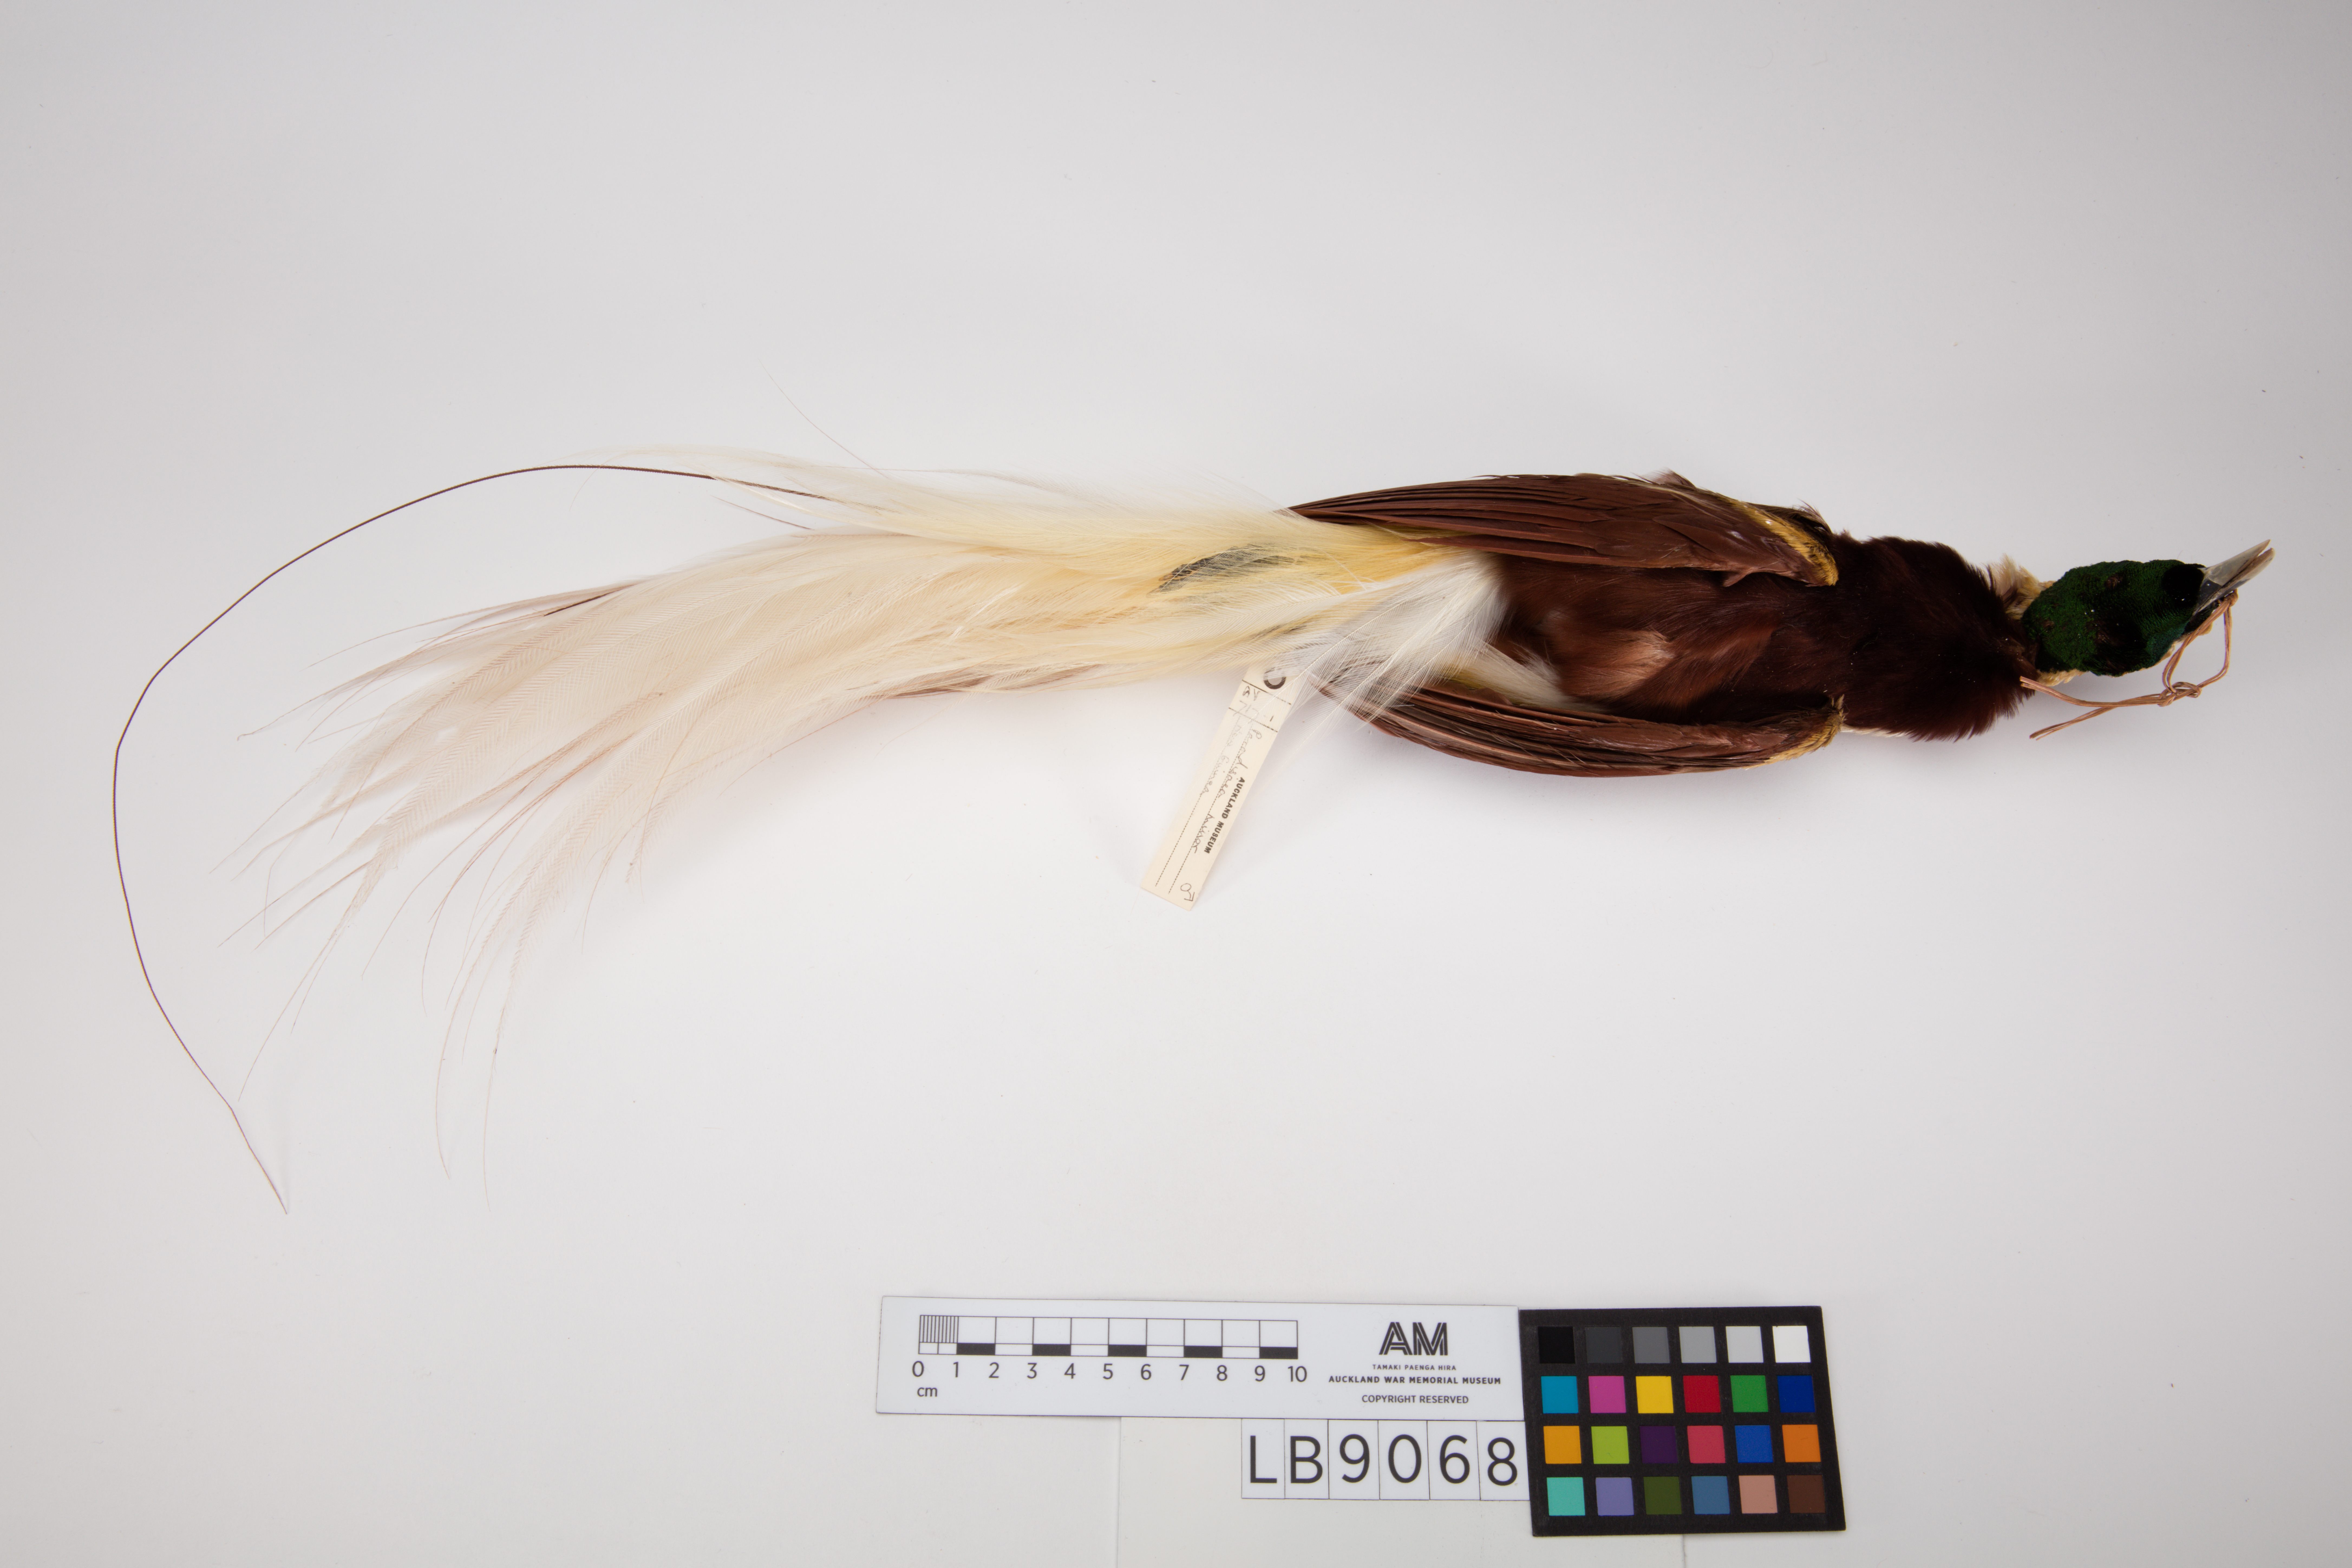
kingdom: Animalia
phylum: Chordata
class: Aves
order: Passeriformes
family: Paradisaeidae
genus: Paradisaea
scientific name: Paradisaea minor
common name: Lesser bird-of-paradise
